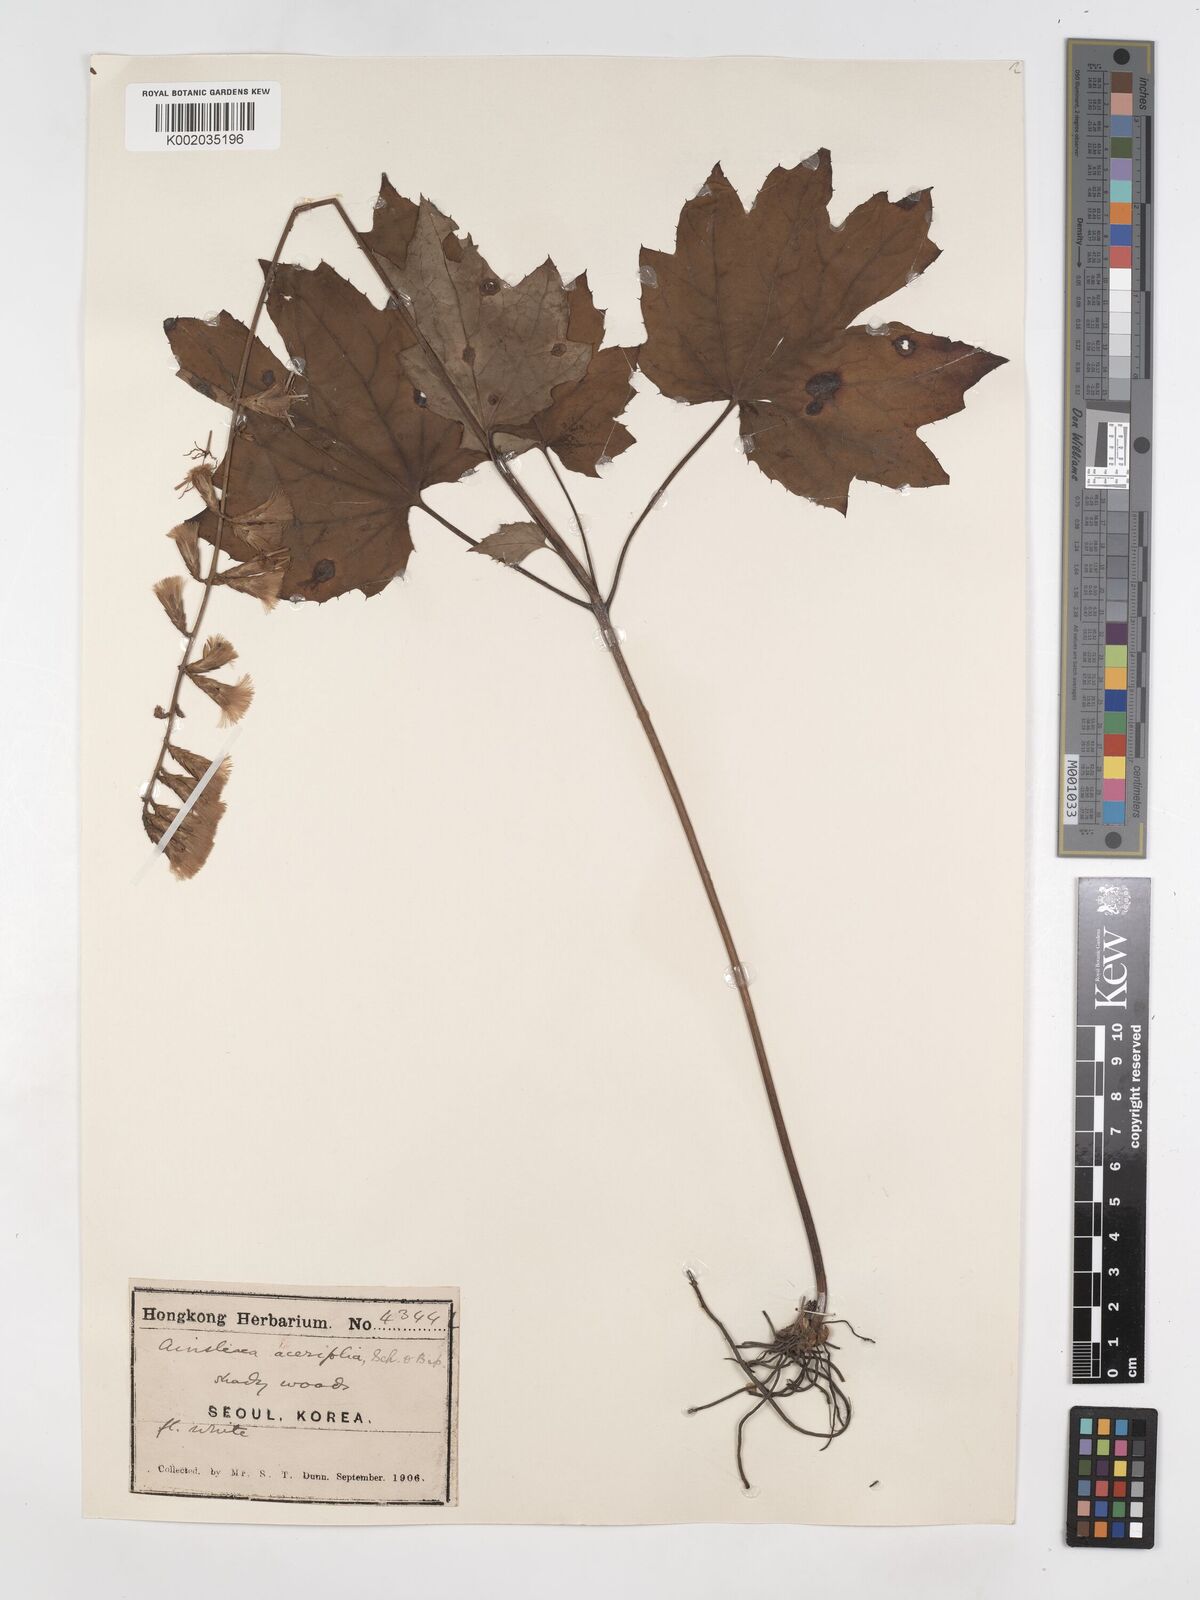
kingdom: Plantae
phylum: Tracheophyta
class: Magnoliopsida
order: Asterales
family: Asteraceae
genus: Ainsliaea
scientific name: Ainsliaea acerifolia
